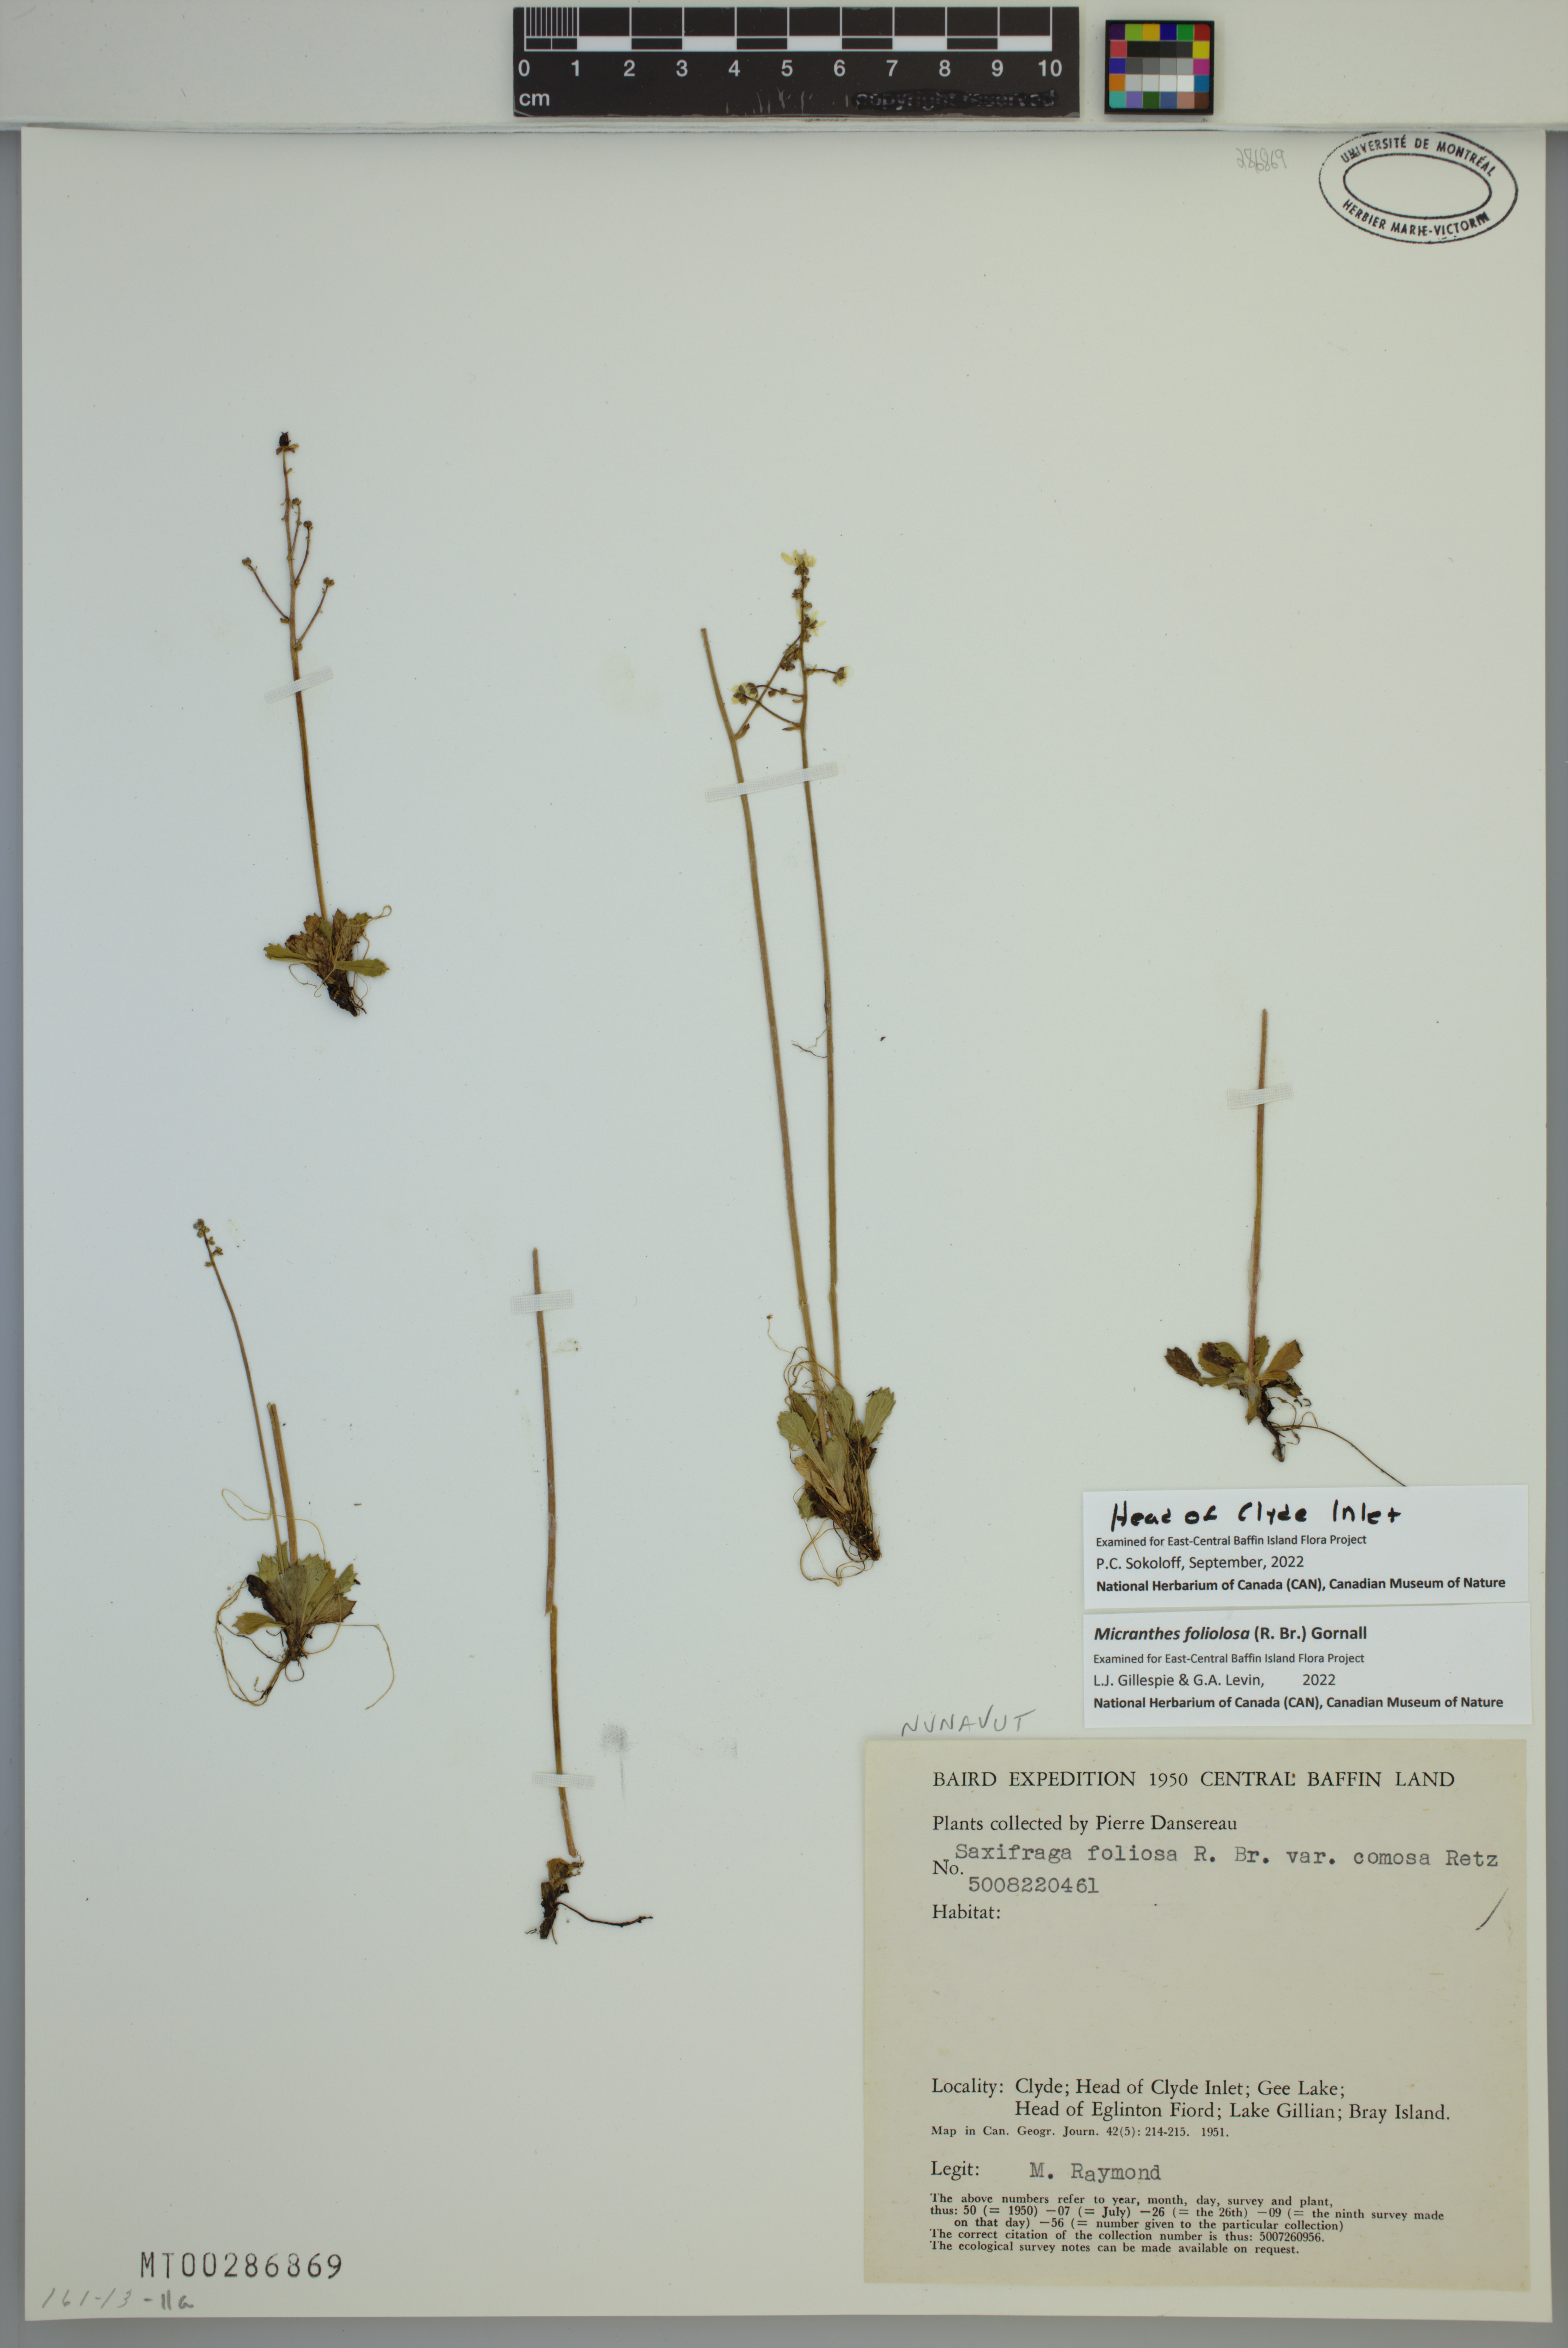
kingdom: Plantae
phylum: Tracheophyta
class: Magnoliopsida
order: Saxifragales
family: Saxifragaceae
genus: Micranthes
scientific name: Micranthes foliolosa
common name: Leafystem saxifrage
